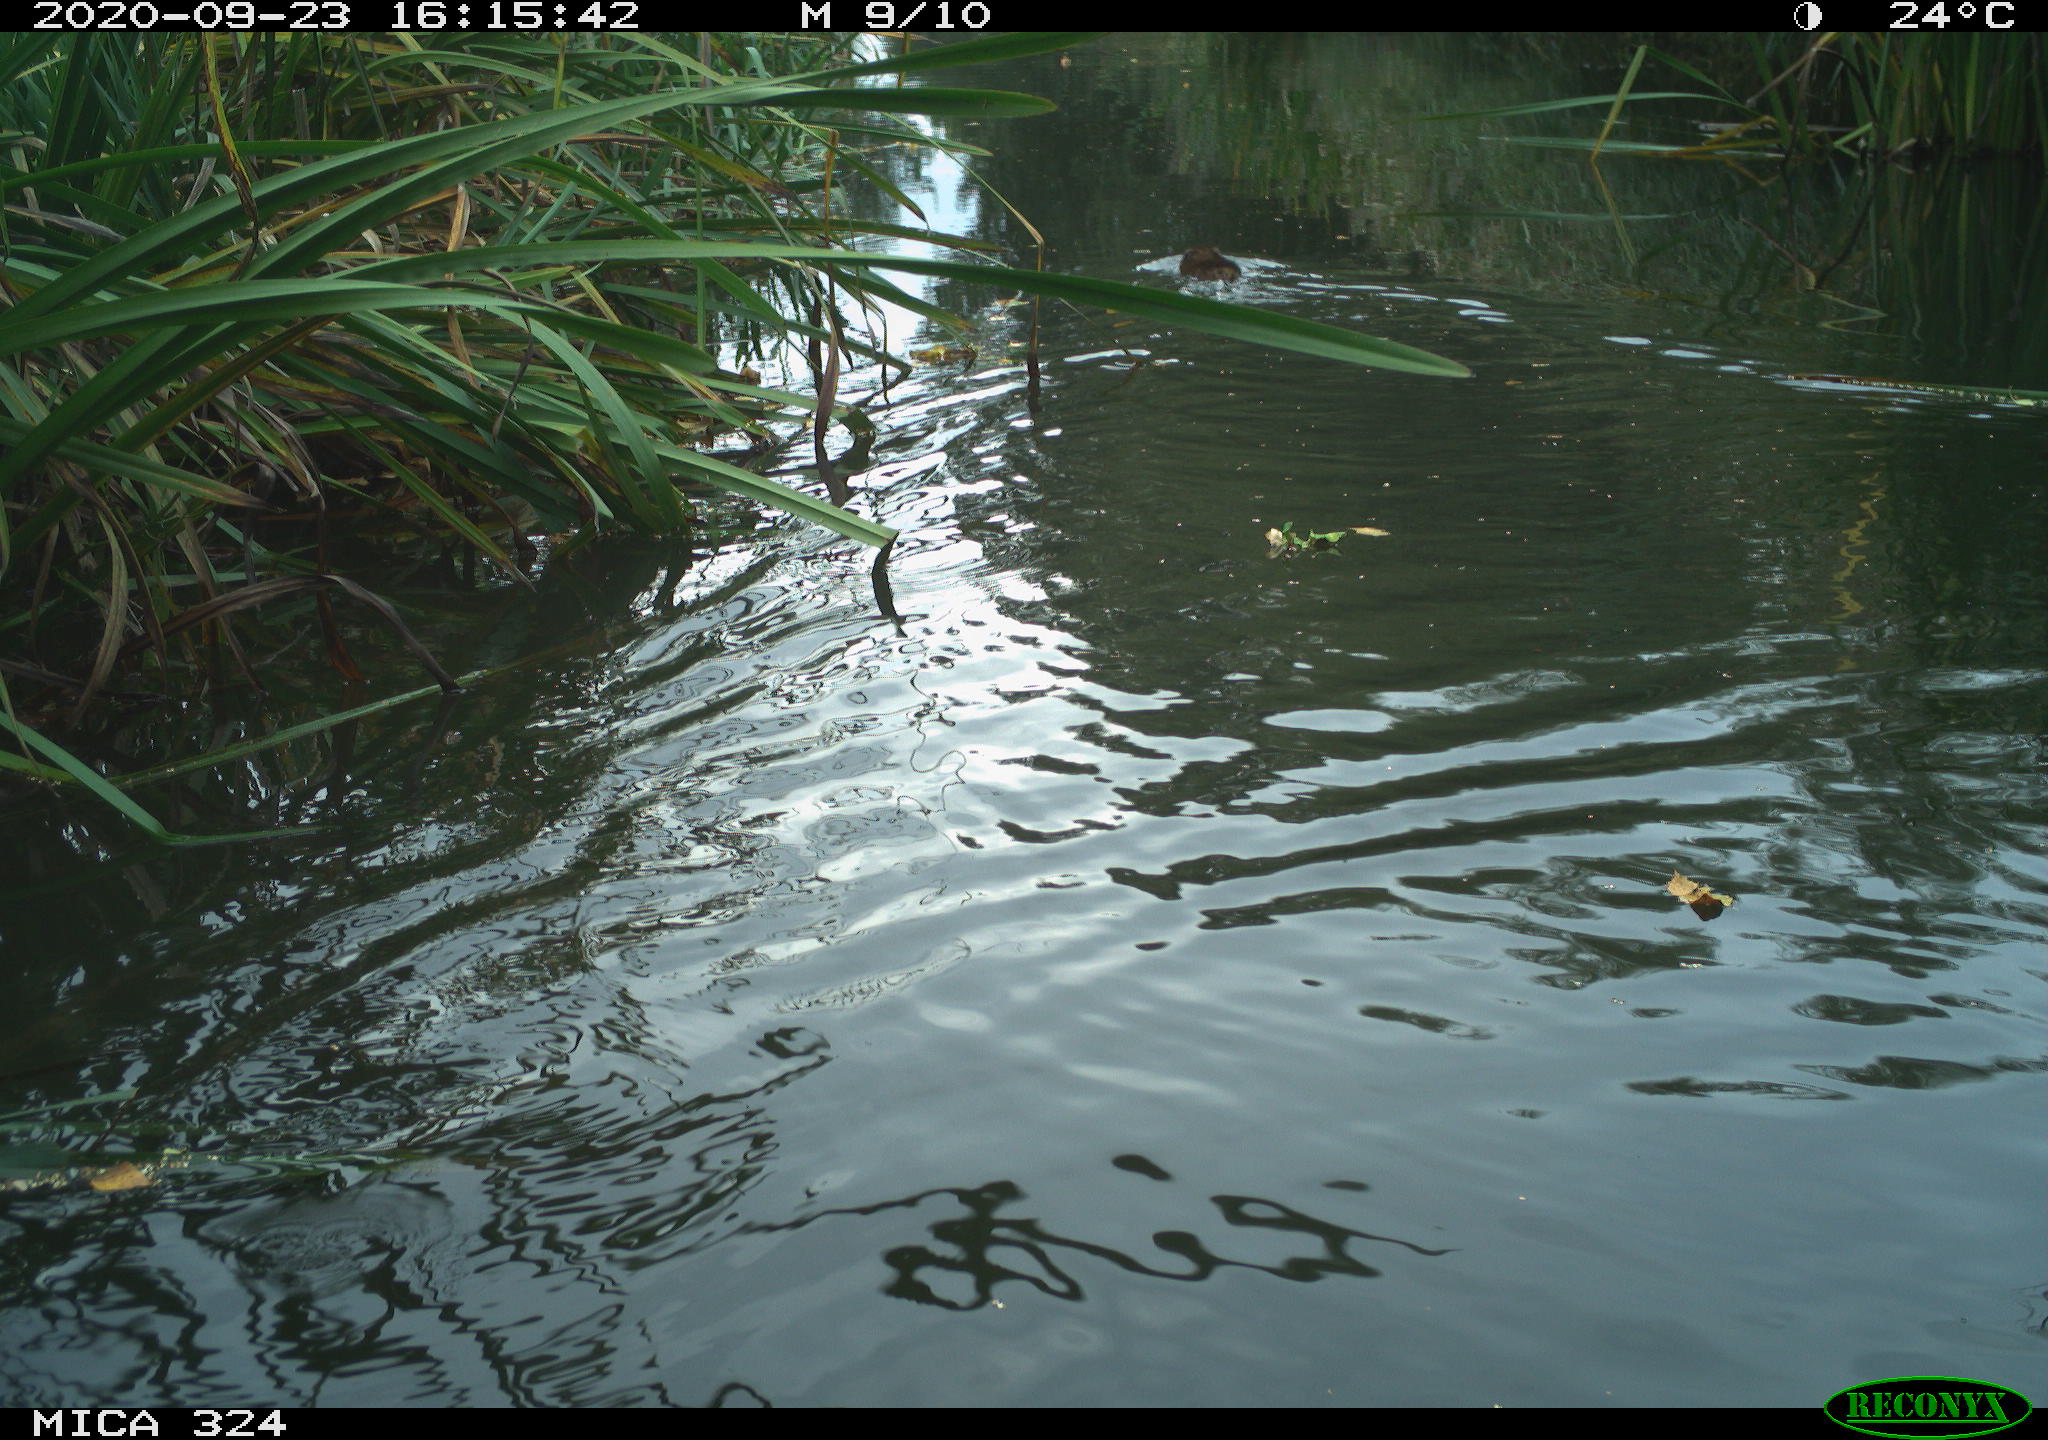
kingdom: Animalia
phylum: Chordata
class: Mammalia
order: Rodentia
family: Cricetidae
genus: Ondatra
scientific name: Ondatra zibethicus
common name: Muskrat
